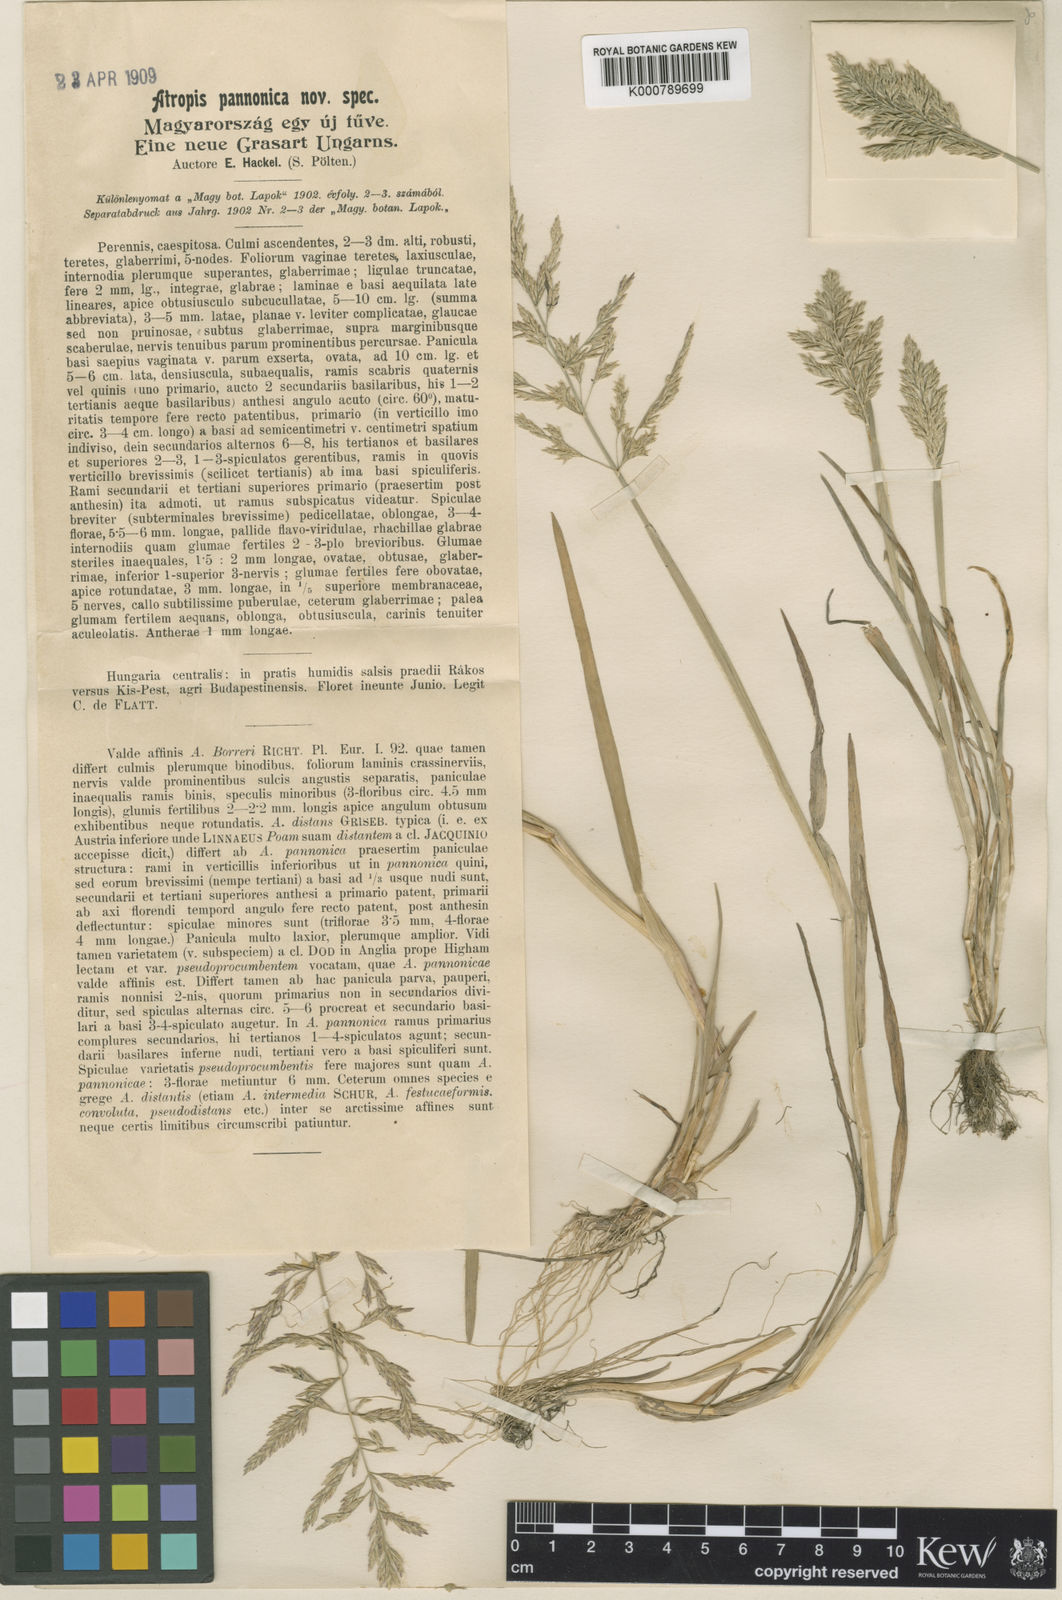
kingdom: Plantae
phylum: Tracheophyta
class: Liliopsida
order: Poales
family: Poaceae
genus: Puccinellia
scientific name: Puccinellia distans
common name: Weeping alkaligrass
